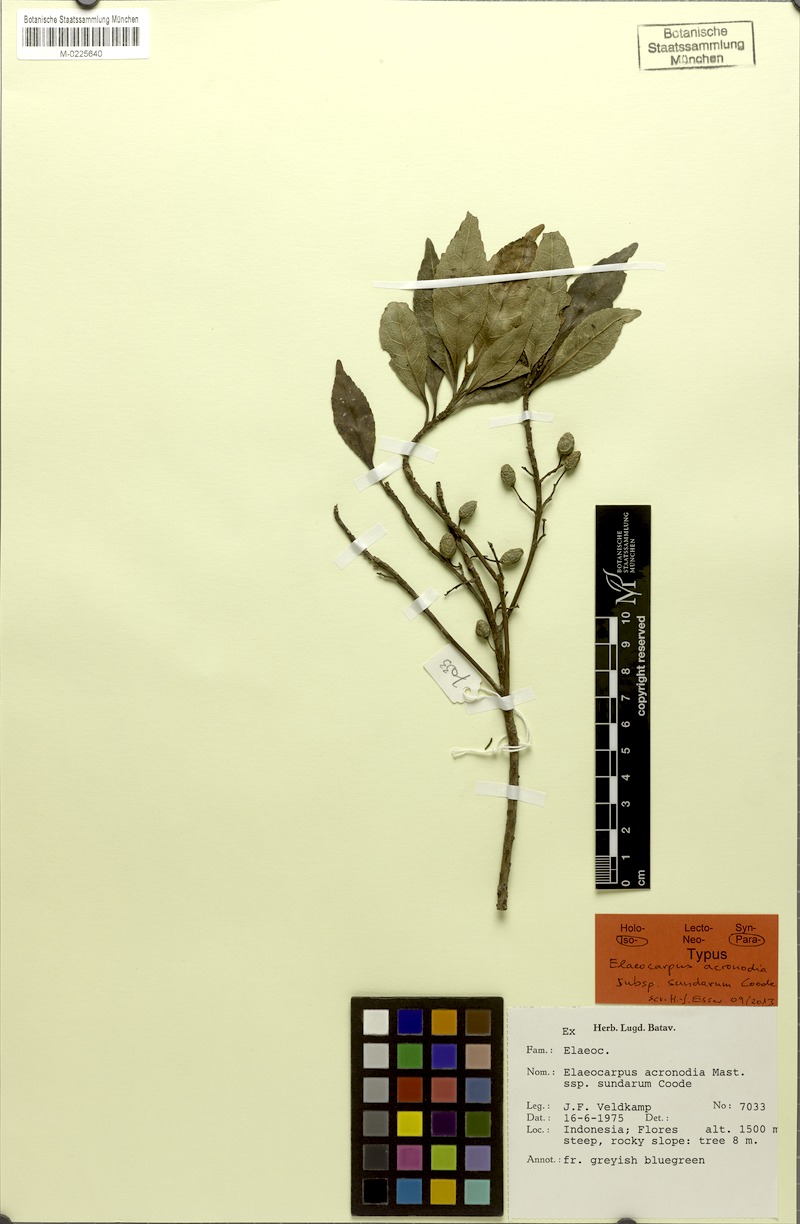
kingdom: Plantae
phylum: Tracheophyta
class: Magnoliopsida
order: Oxalidales
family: Elaeocarpaceae
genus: Elaeocarpus
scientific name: Elaeocarpus acronodia
